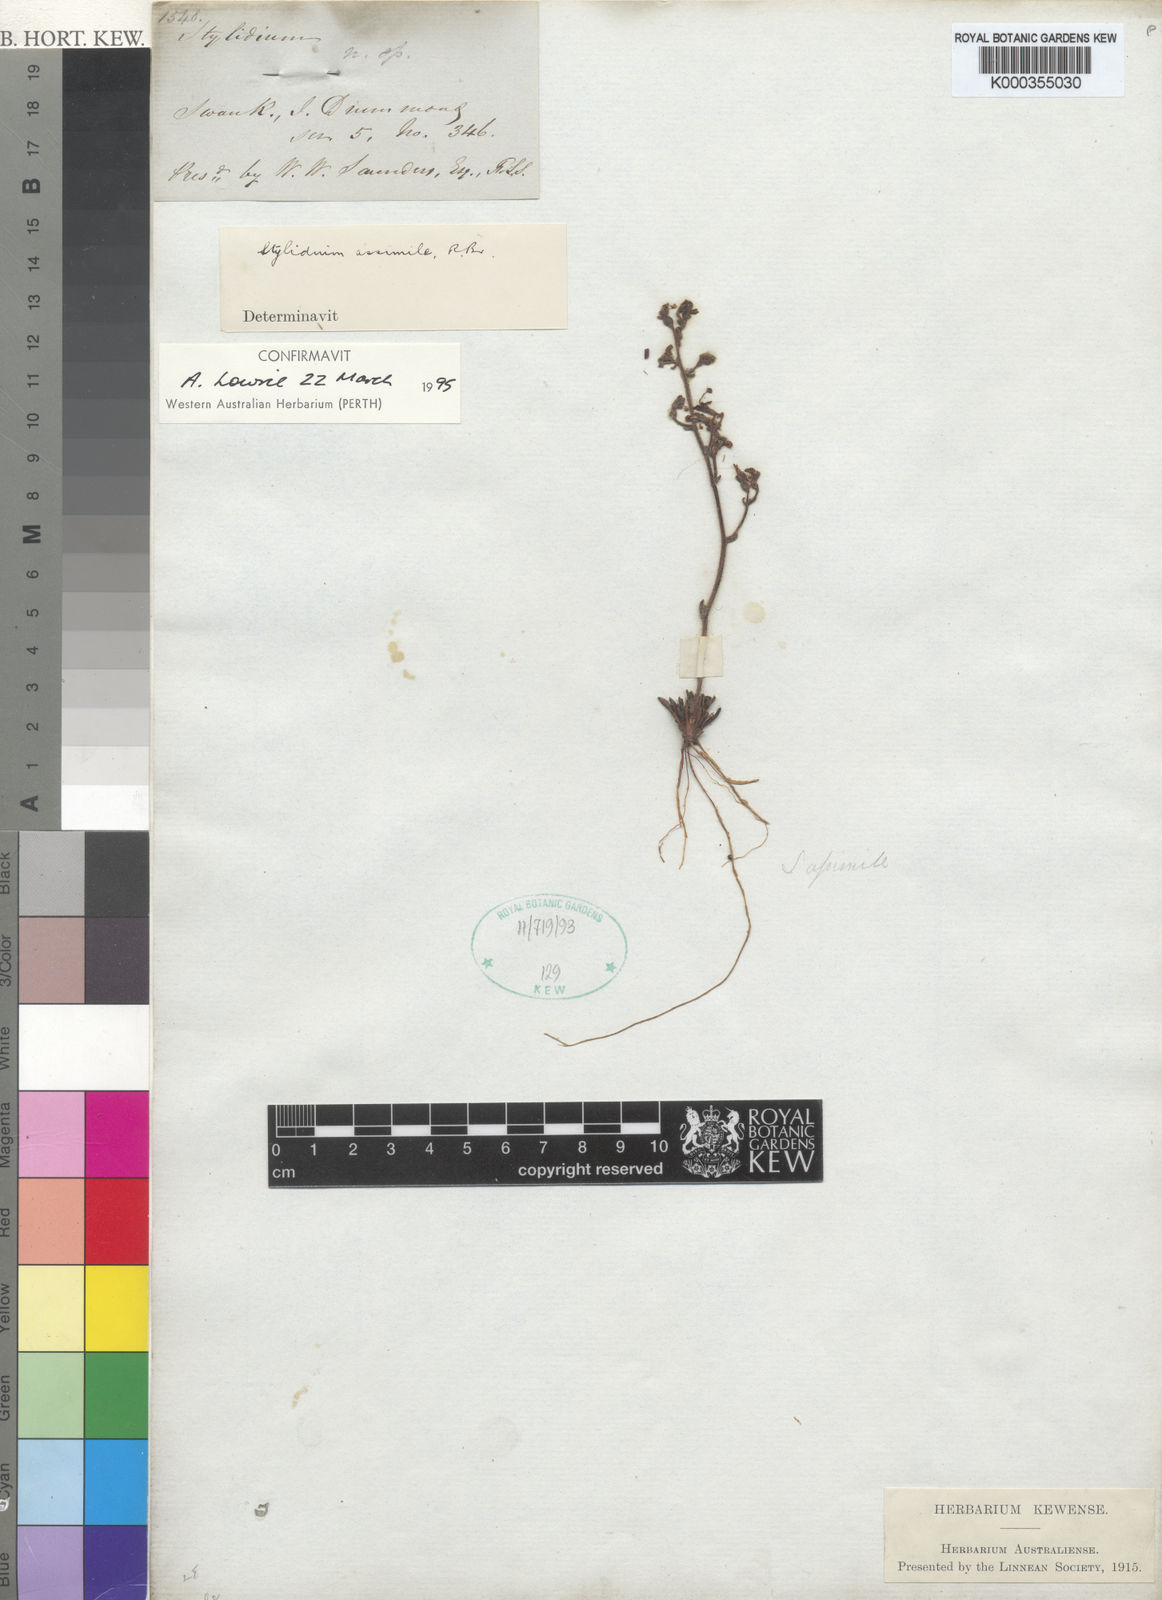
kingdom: Plantae
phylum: Tracheophyta
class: Magnoliopsida
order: Asterales
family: Stylidiaceae
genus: Stylidium
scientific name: Stylidium assimile
